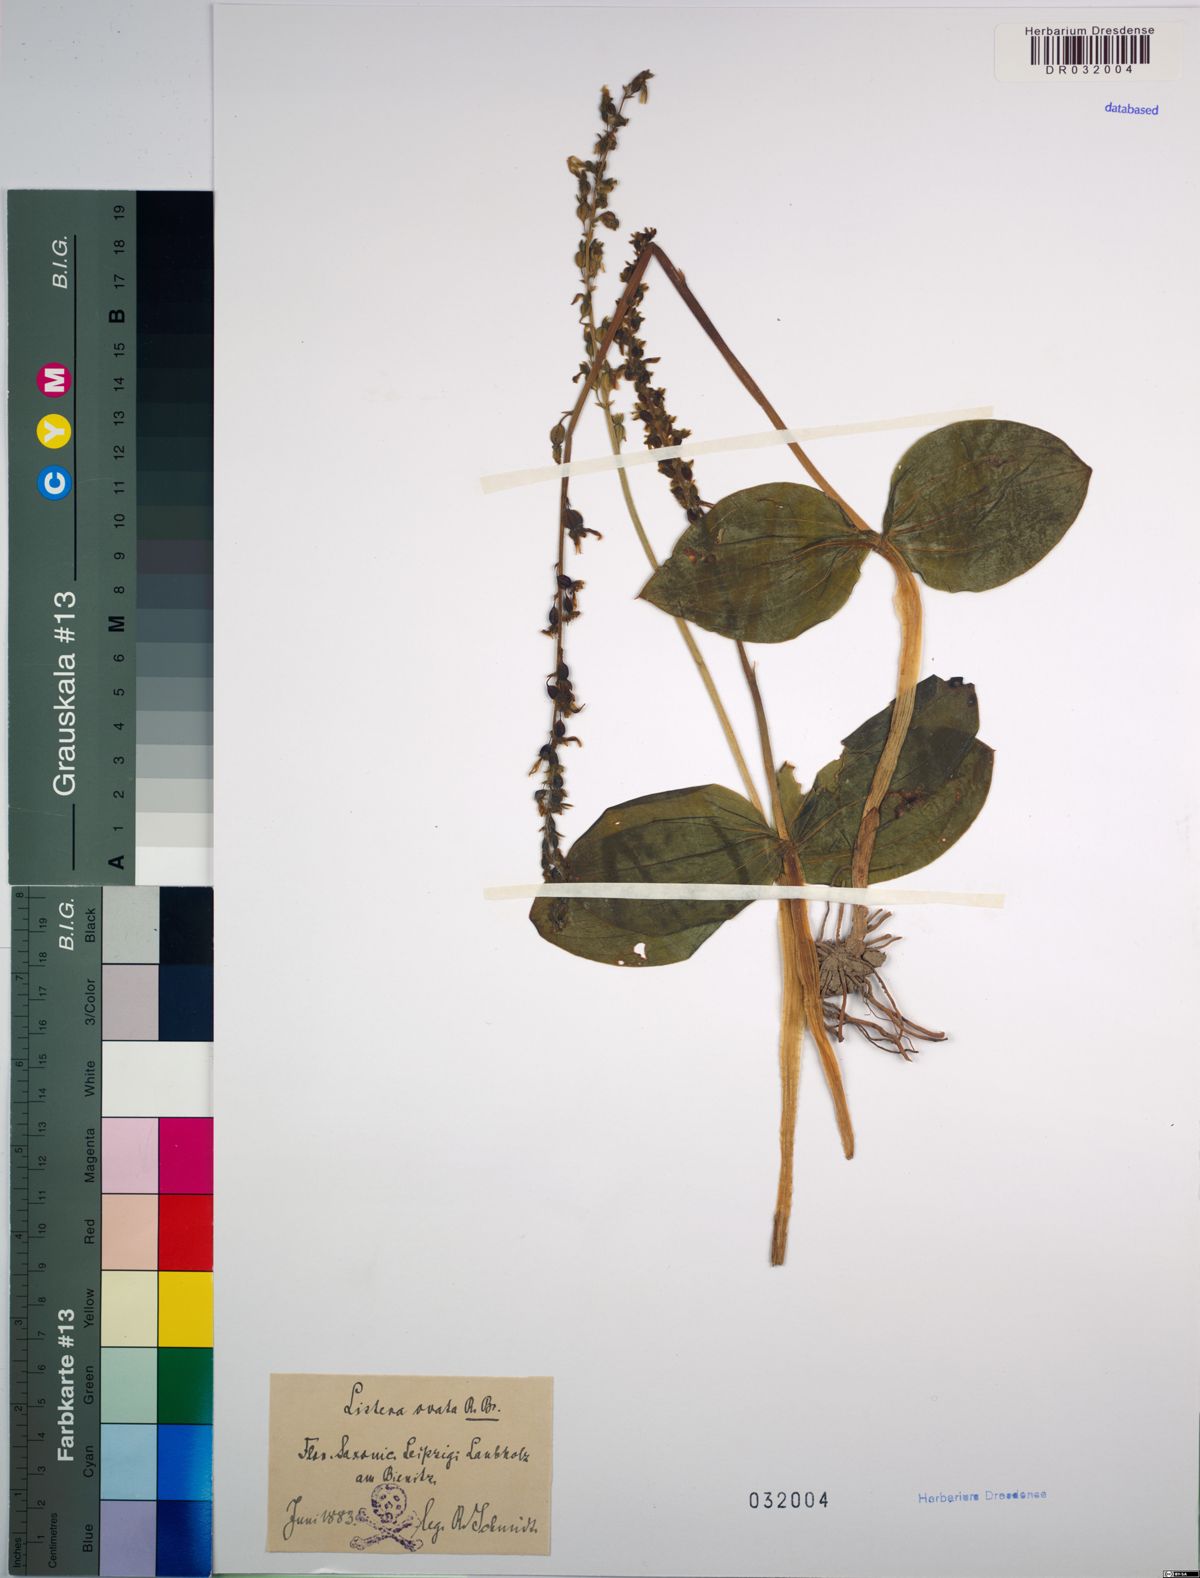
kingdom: Plantae
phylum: Tracheophyta
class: Liliopsida
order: Asparagales
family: Orchidaceae
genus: Neottia
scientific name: Neottia ovata
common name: Common twayblade
